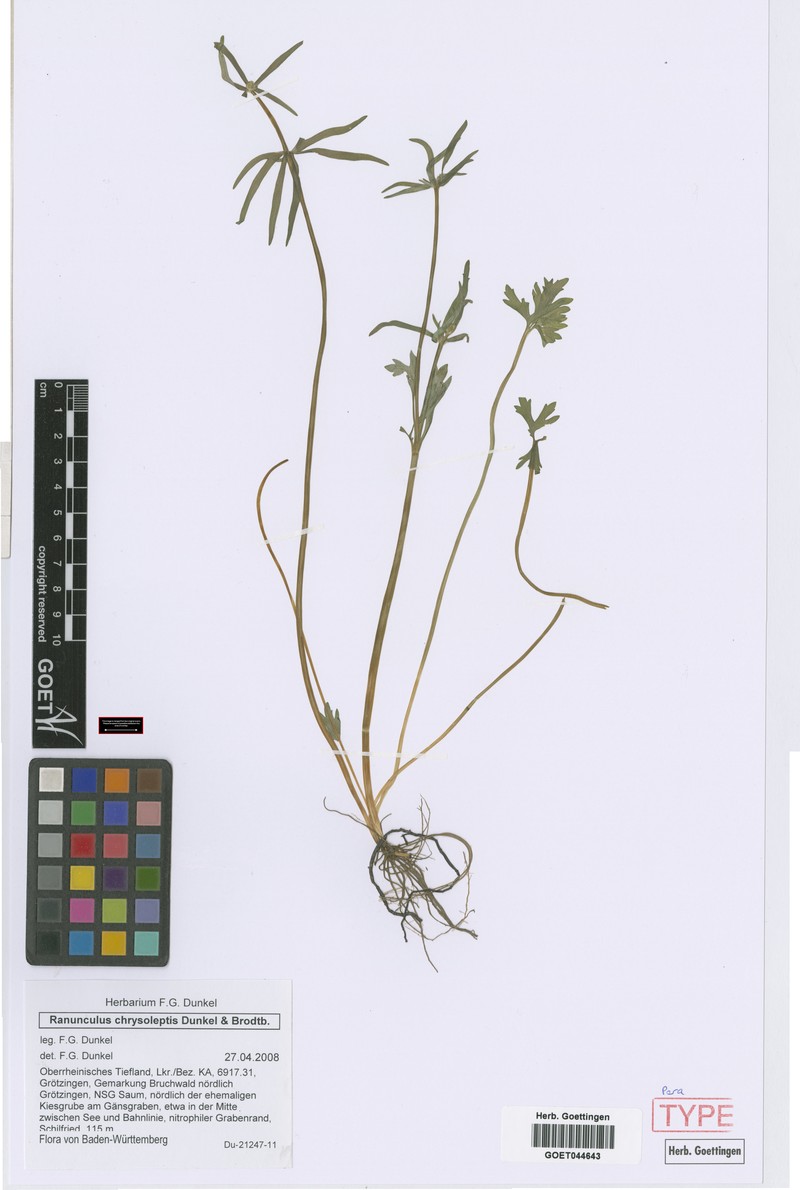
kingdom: Plantae
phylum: Tracheophyta
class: Magnoliopsida
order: Ranunculales
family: Ranunculaceae
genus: Ranunculus
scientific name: Ranunculus chrysoleptos
